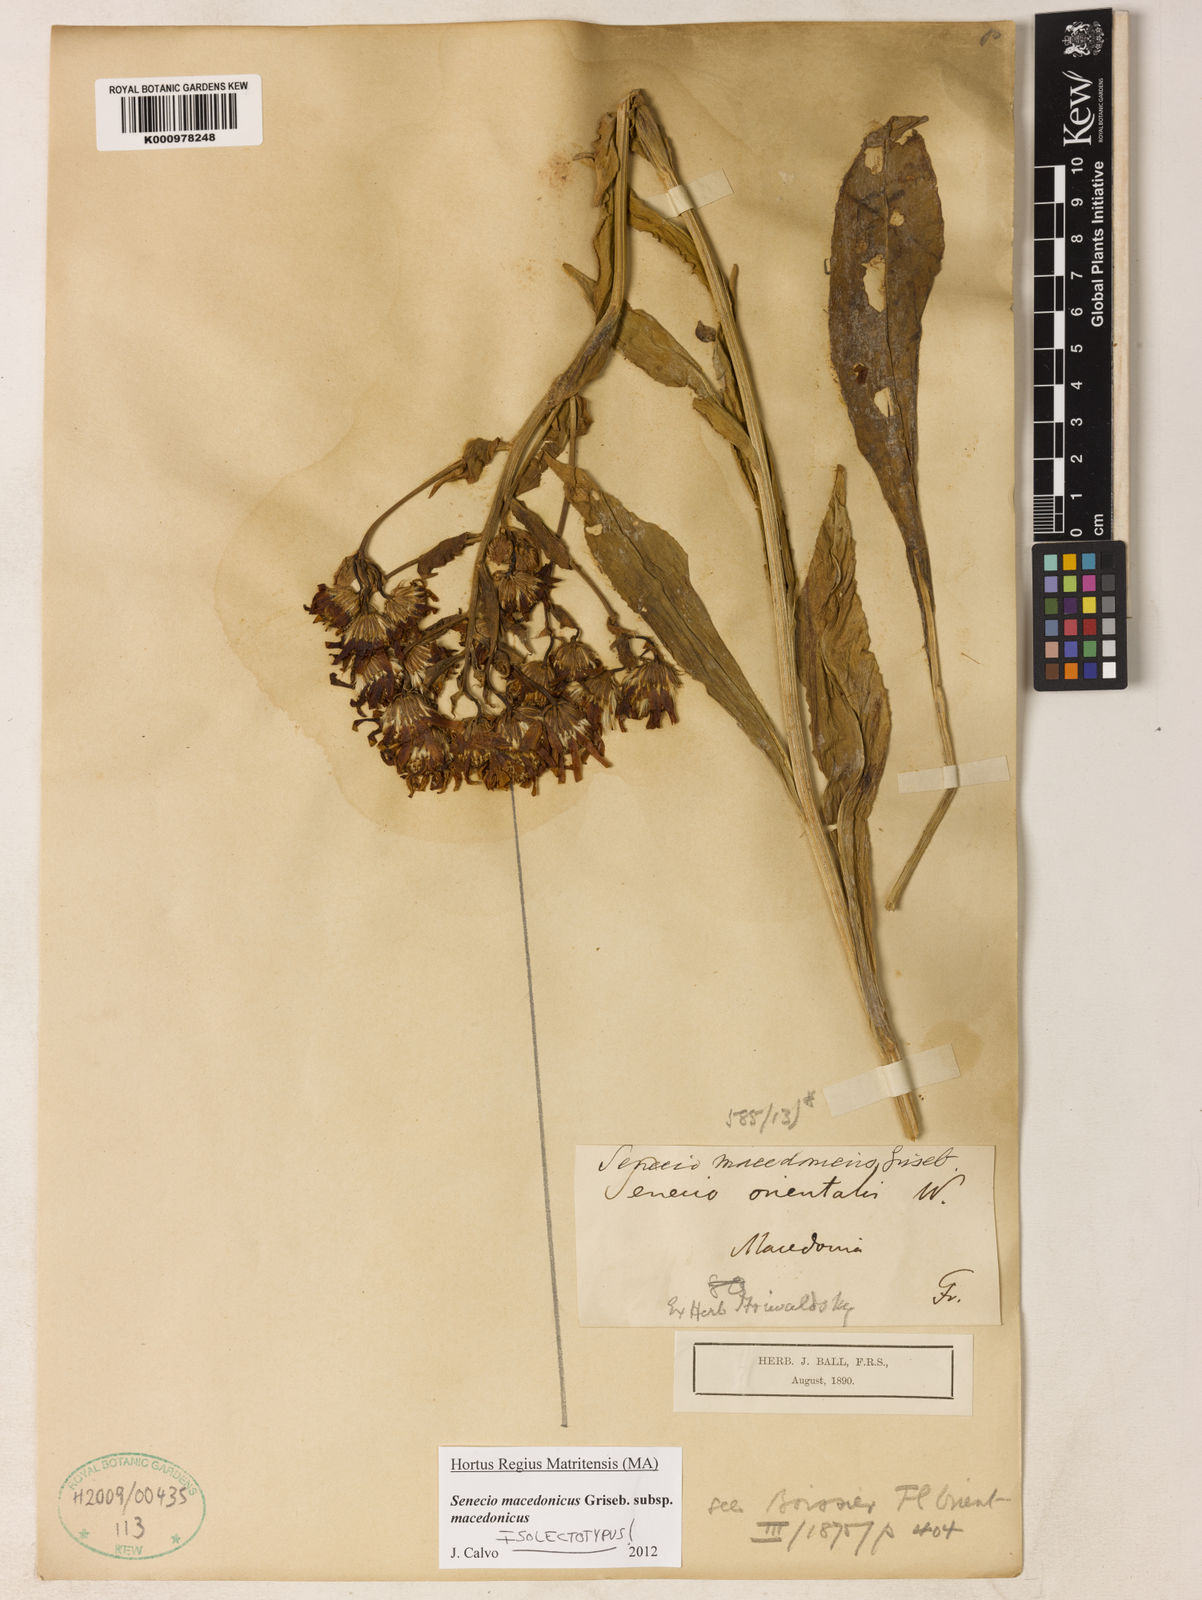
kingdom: Plantae
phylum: Tracheophyta
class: Magnoliopsida
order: Asterales
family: Asteraceae
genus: Senecio
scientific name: Senecio macedonicus
